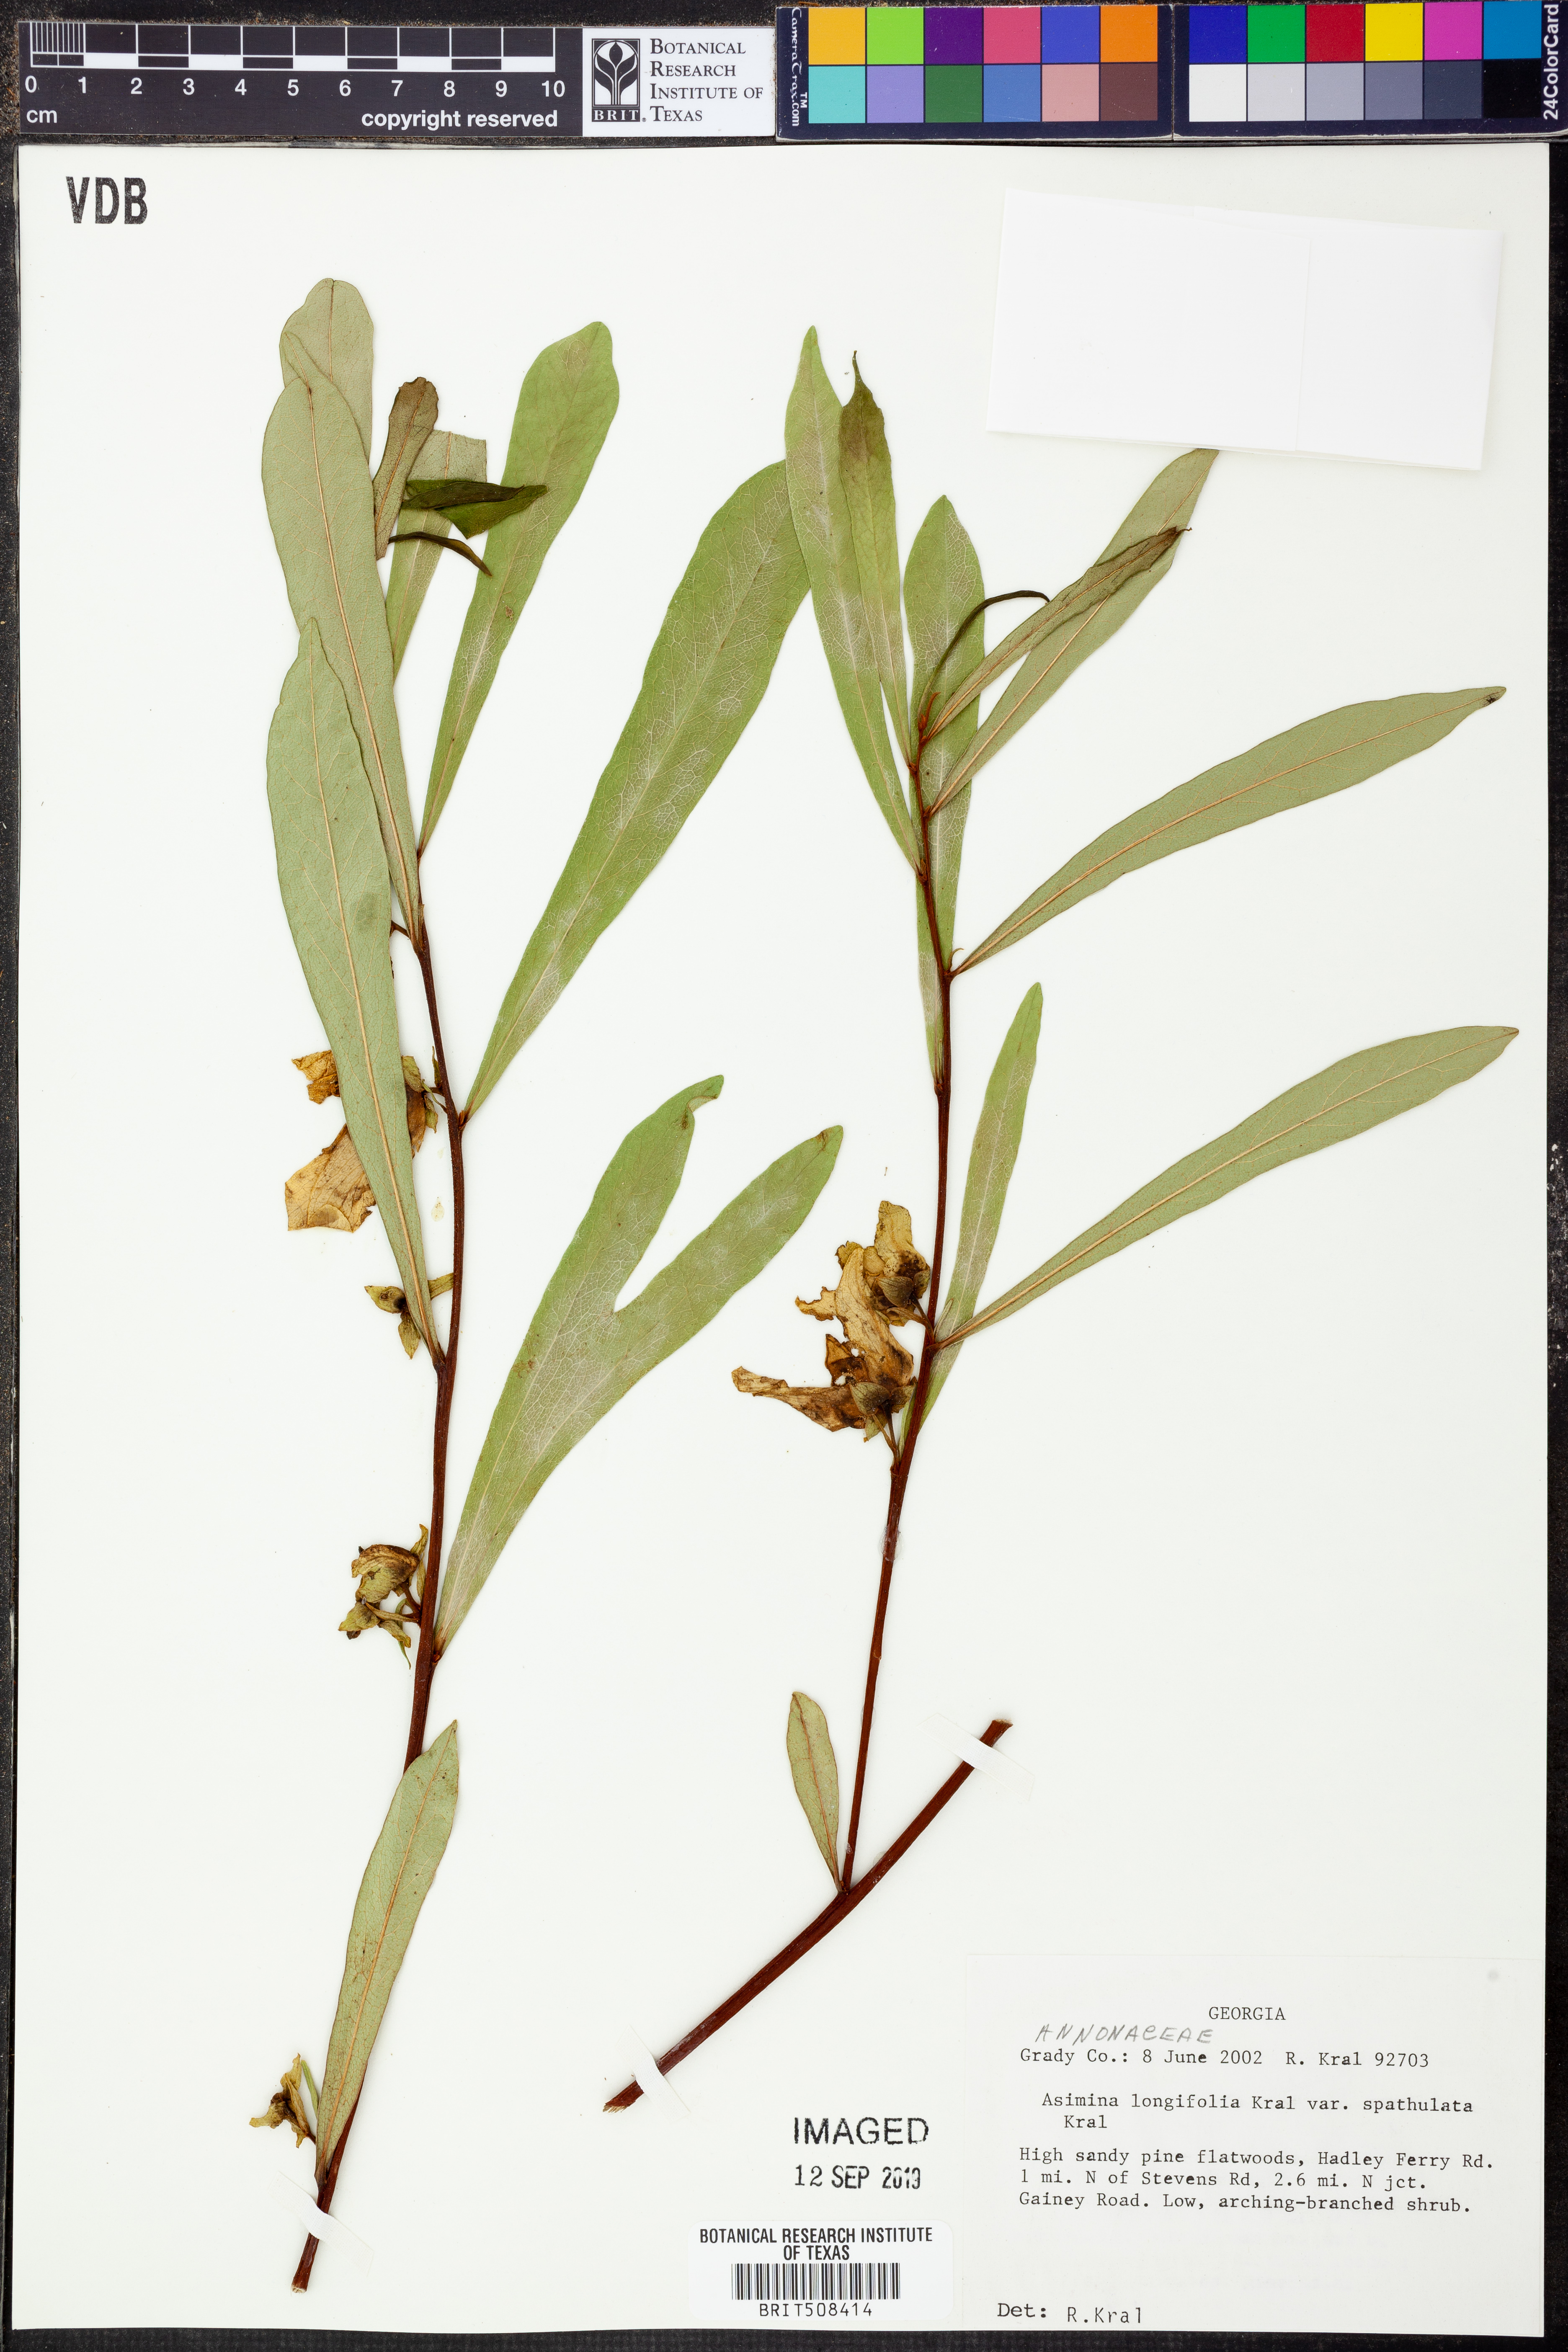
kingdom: Plantae
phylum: Tracheophyta
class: Magnoliopsida
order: Magnoliales
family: Annonaceae
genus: Asimina
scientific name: Asimina longifolia
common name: Polecatbush
